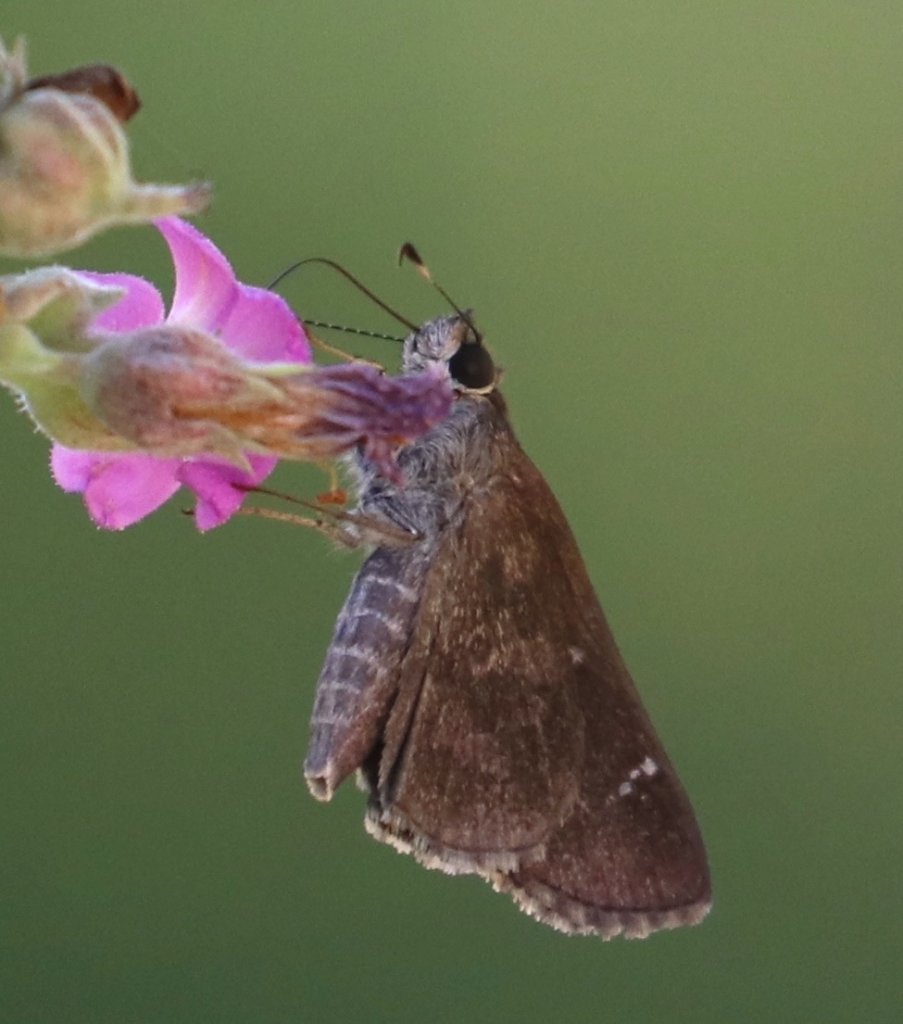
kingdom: Animalia
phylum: Arthropoda
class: Insecta
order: Lepidoptera
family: Hesperiidae
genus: Cymaenes
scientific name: Cymaenes odilia
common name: Fawn-spotted Skipper
